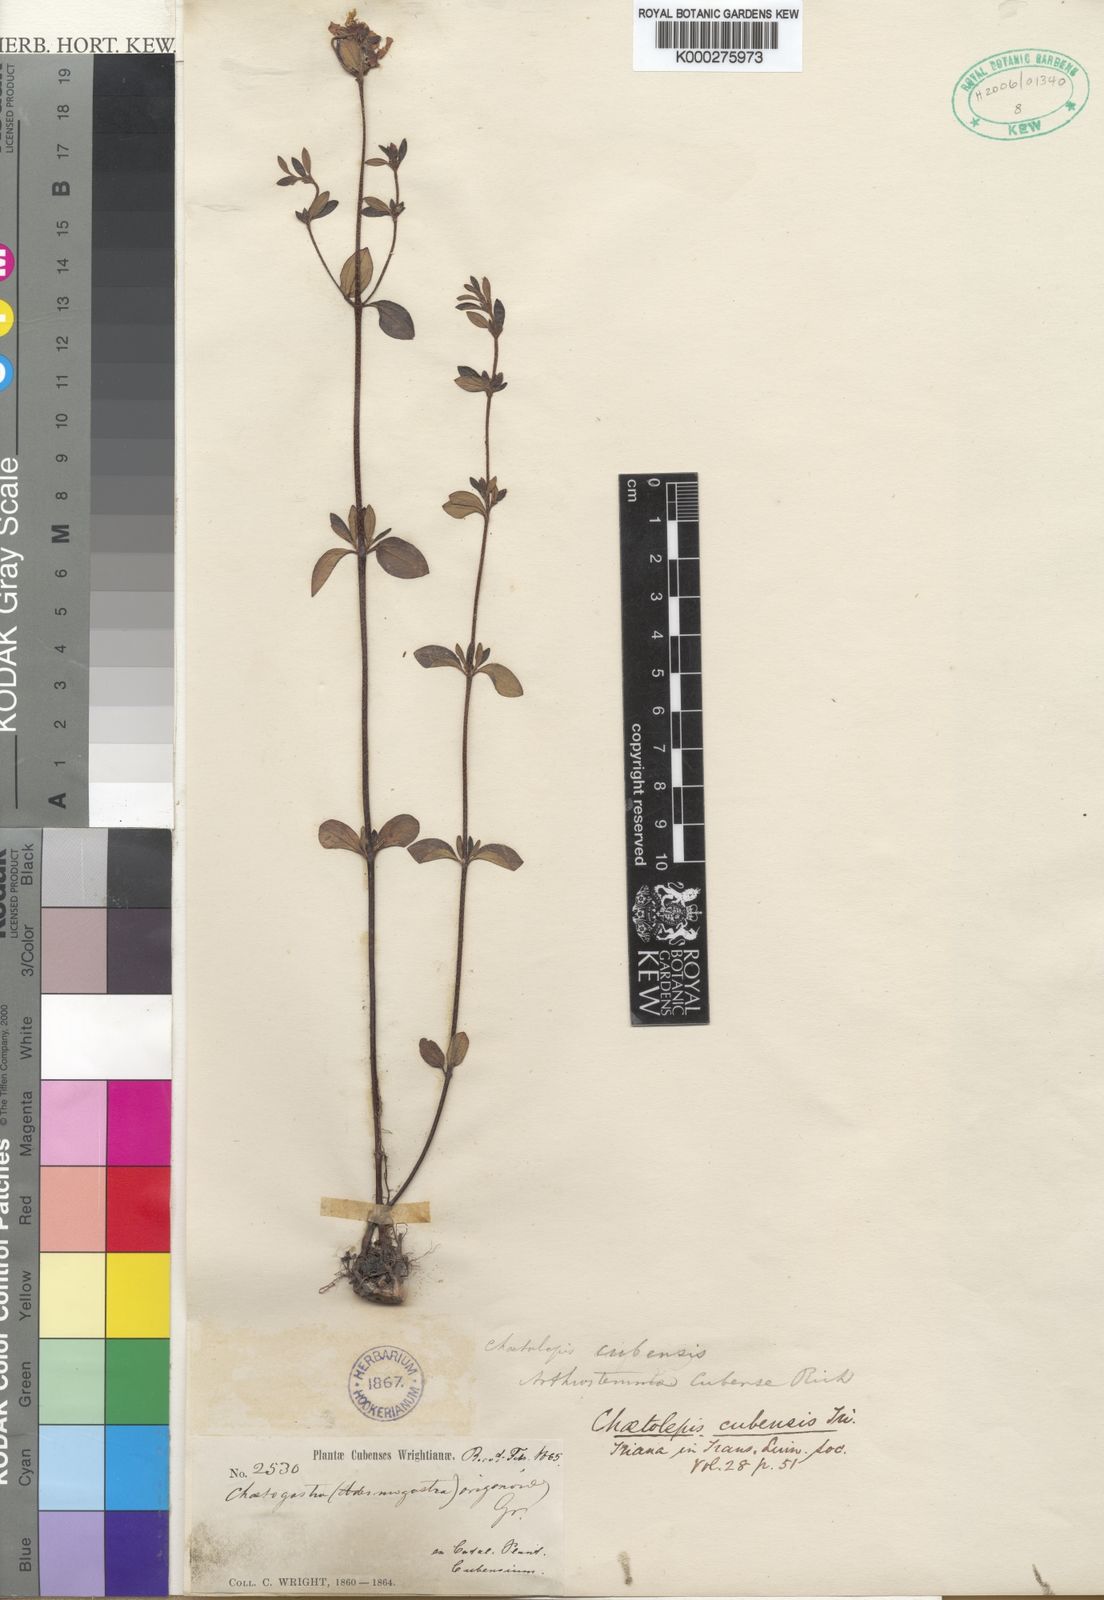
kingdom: Plantae
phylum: Tracheophyta
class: Magnoliopsida
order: Myrtales
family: Melastomataceae
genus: Tibouchina
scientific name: Tibouchina
